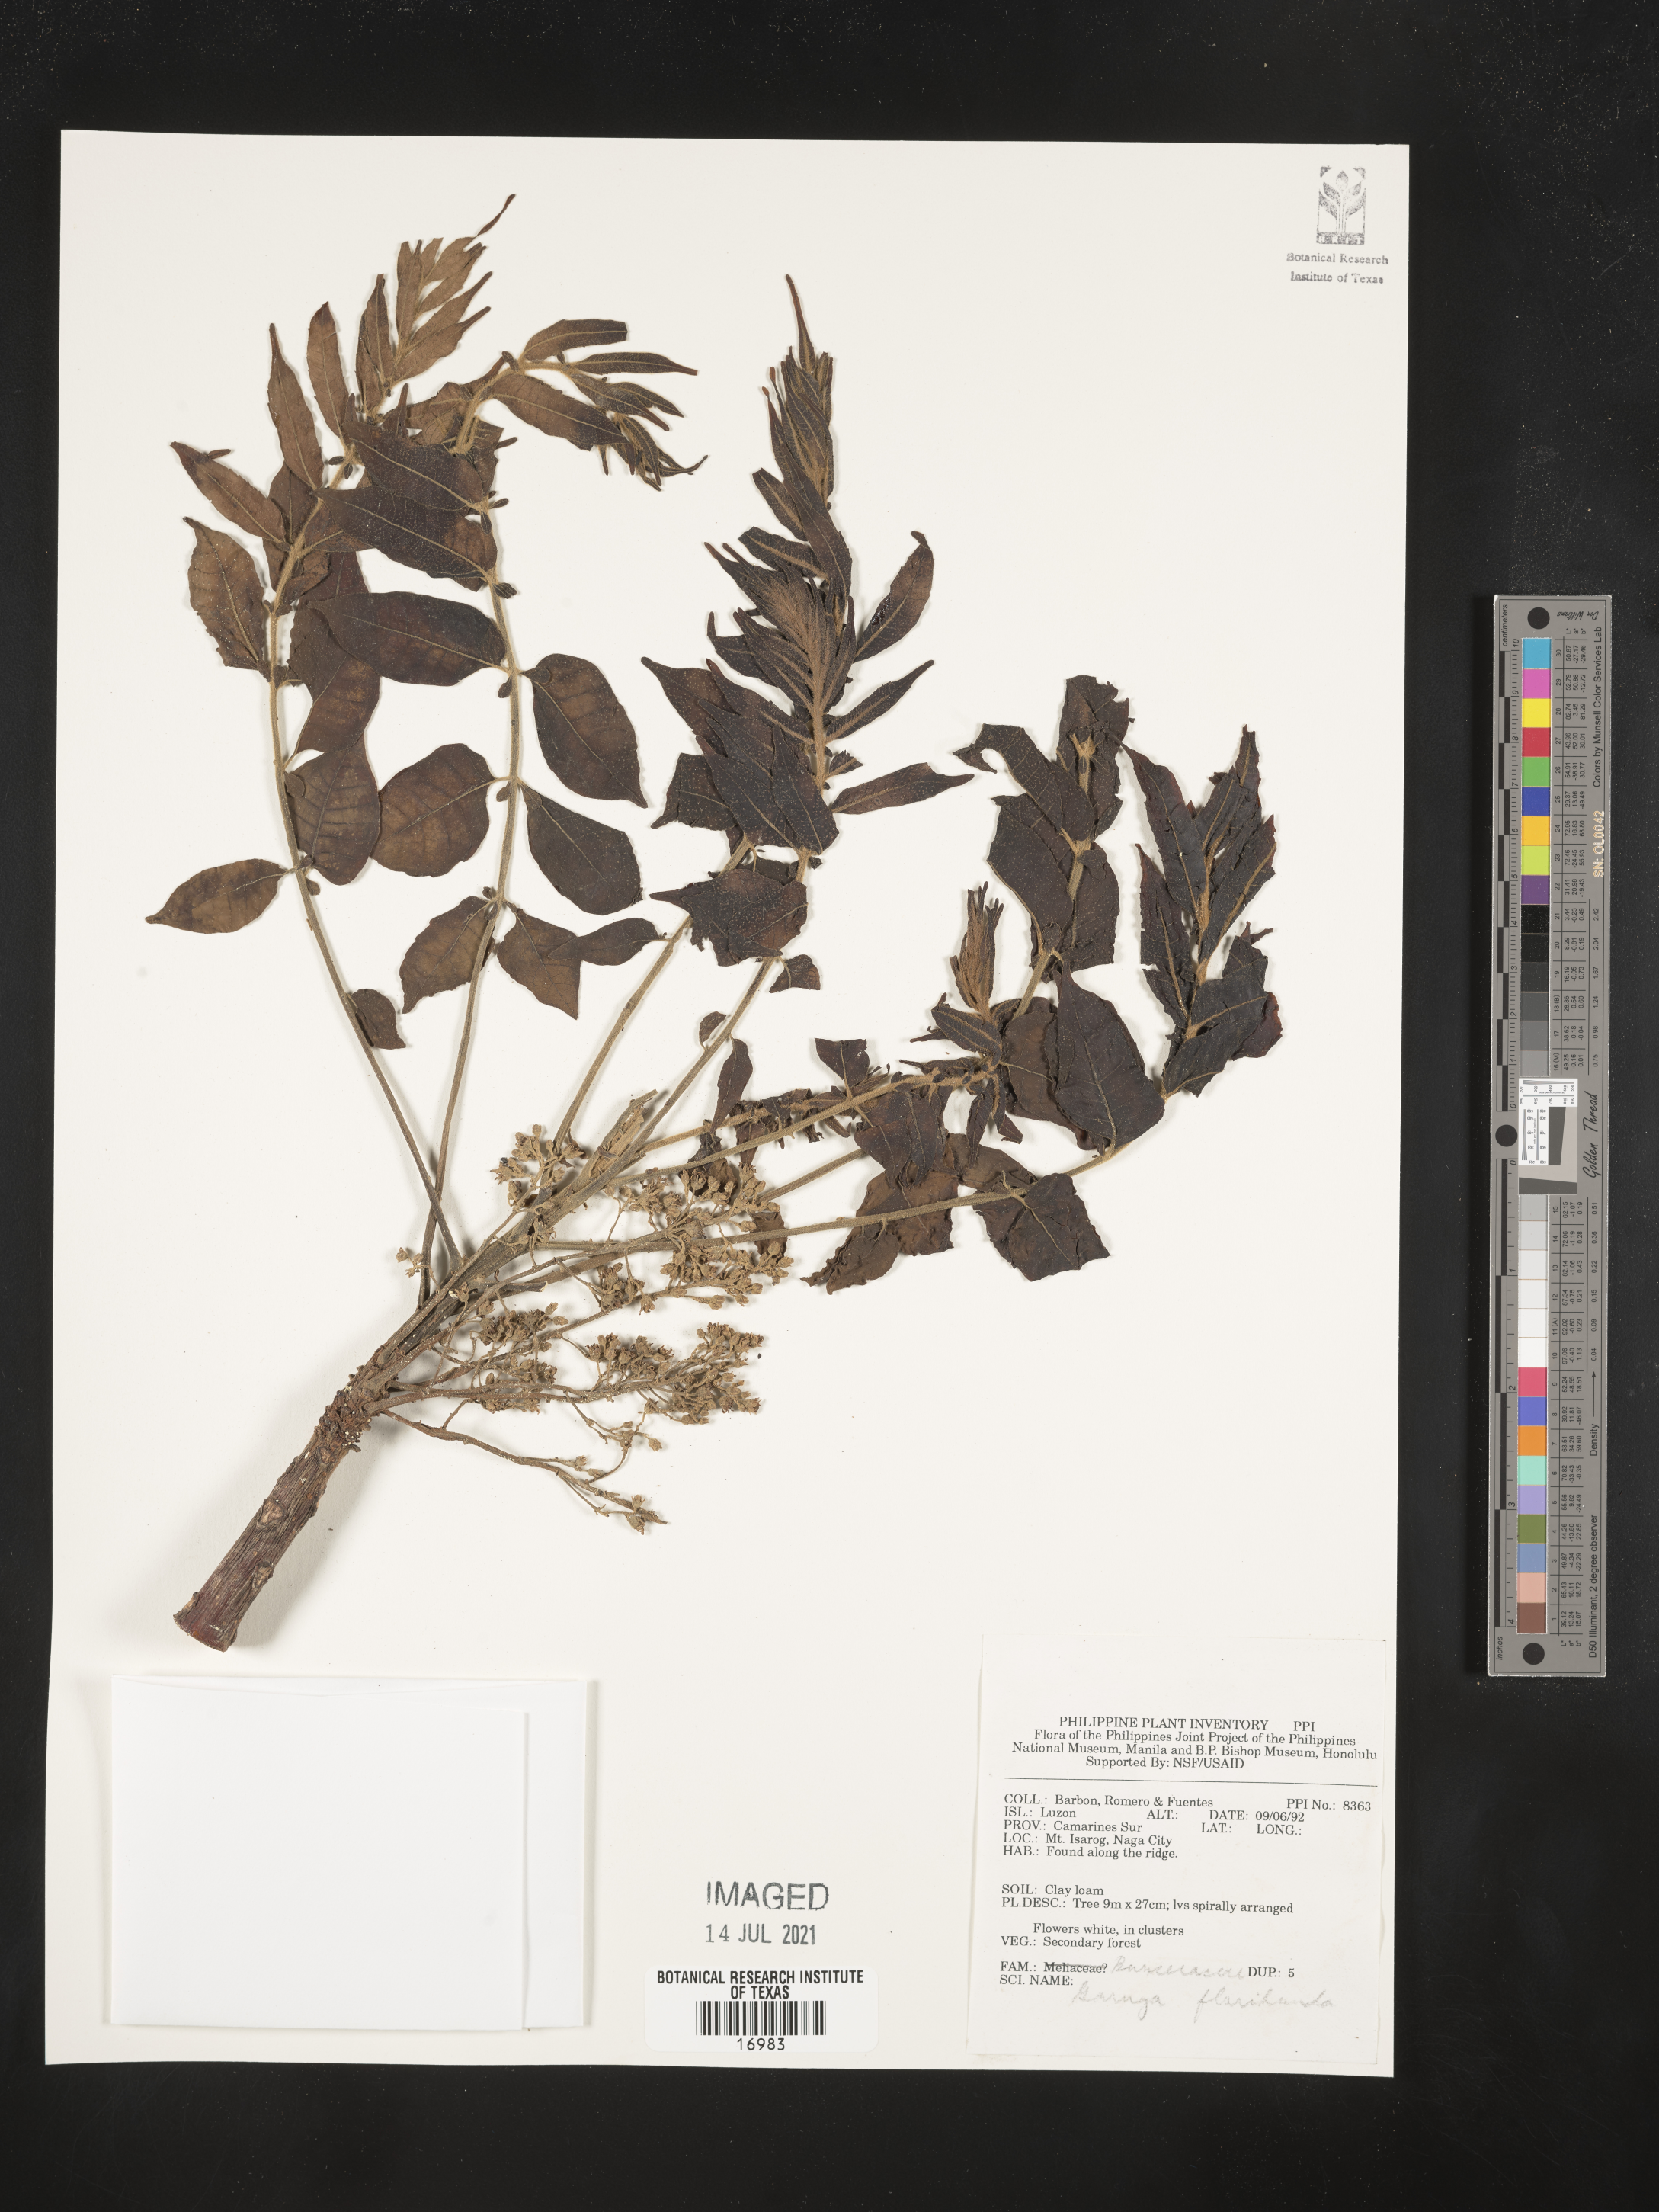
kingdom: Plantae
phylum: Tracheophyta
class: Magnoliopsida
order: Sapindales
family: Burseraceae
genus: Garuga
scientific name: Garuga floribunda
